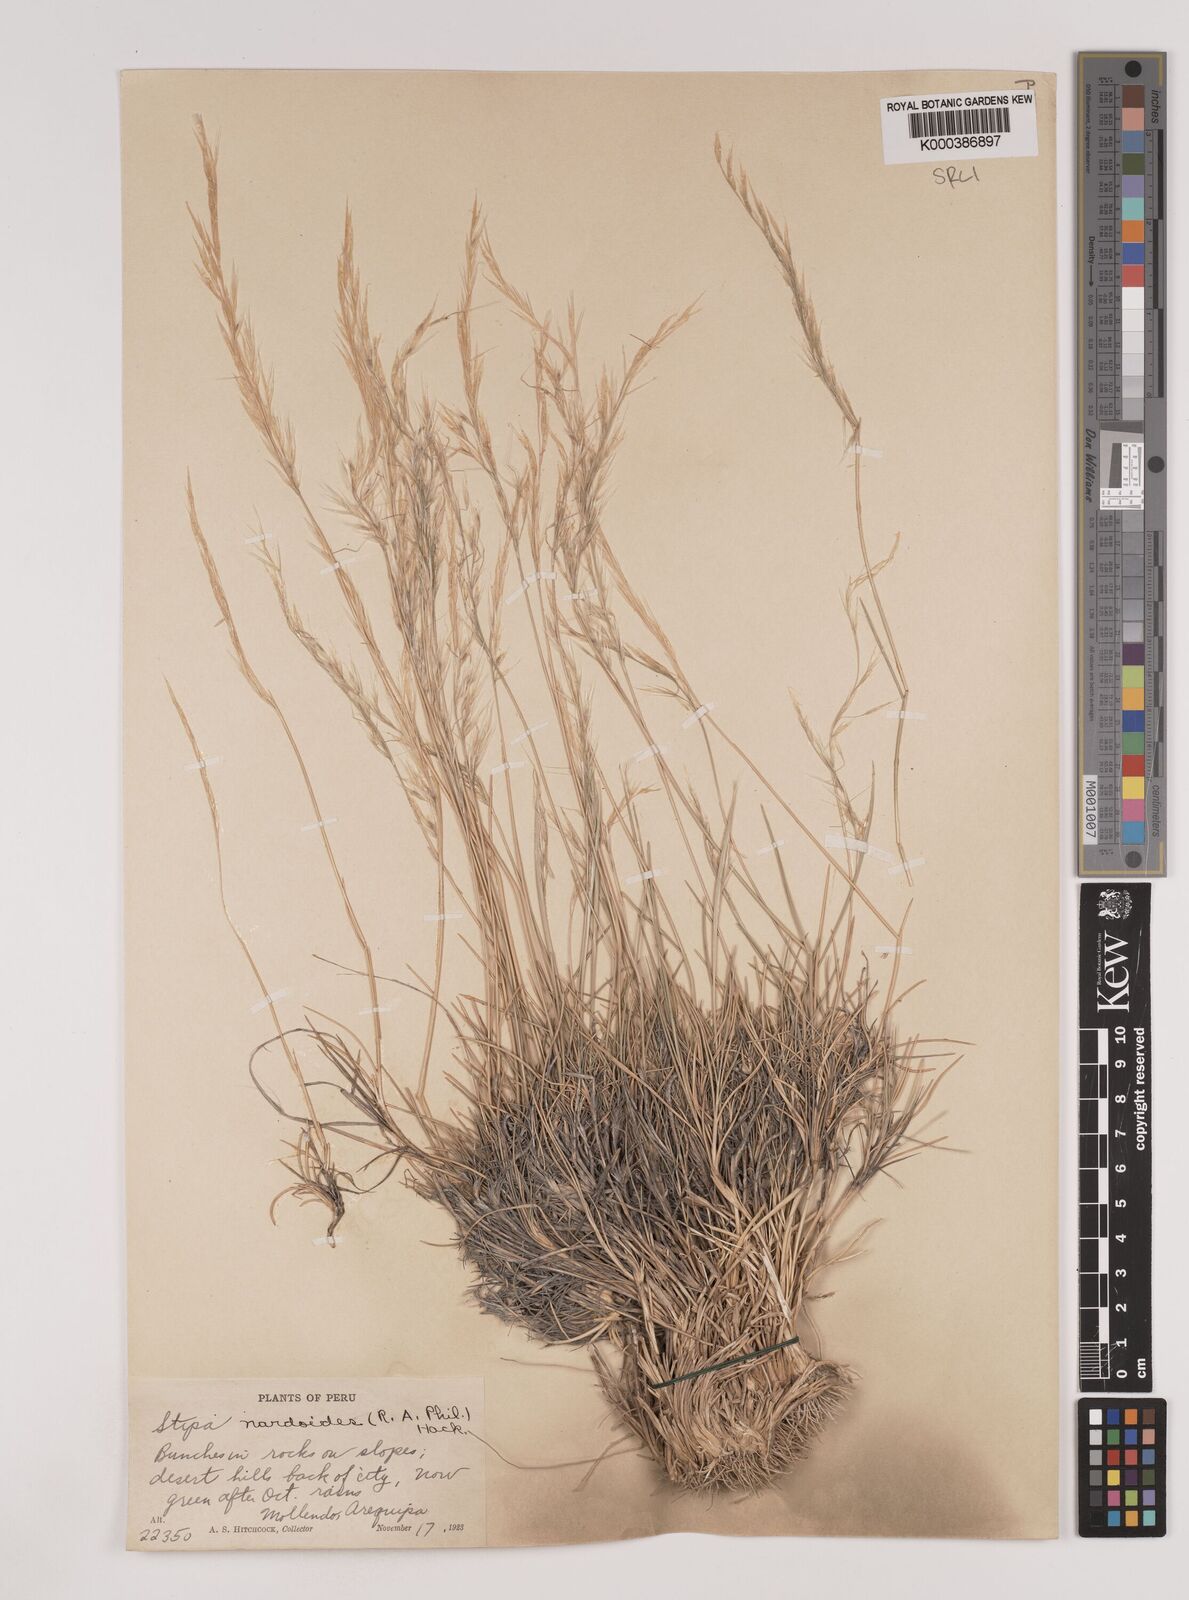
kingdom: Plantae
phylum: Tracheophyta
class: Liliopsida
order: Poales
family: Poaceae
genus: Nassella
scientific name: Nassella nardoides
